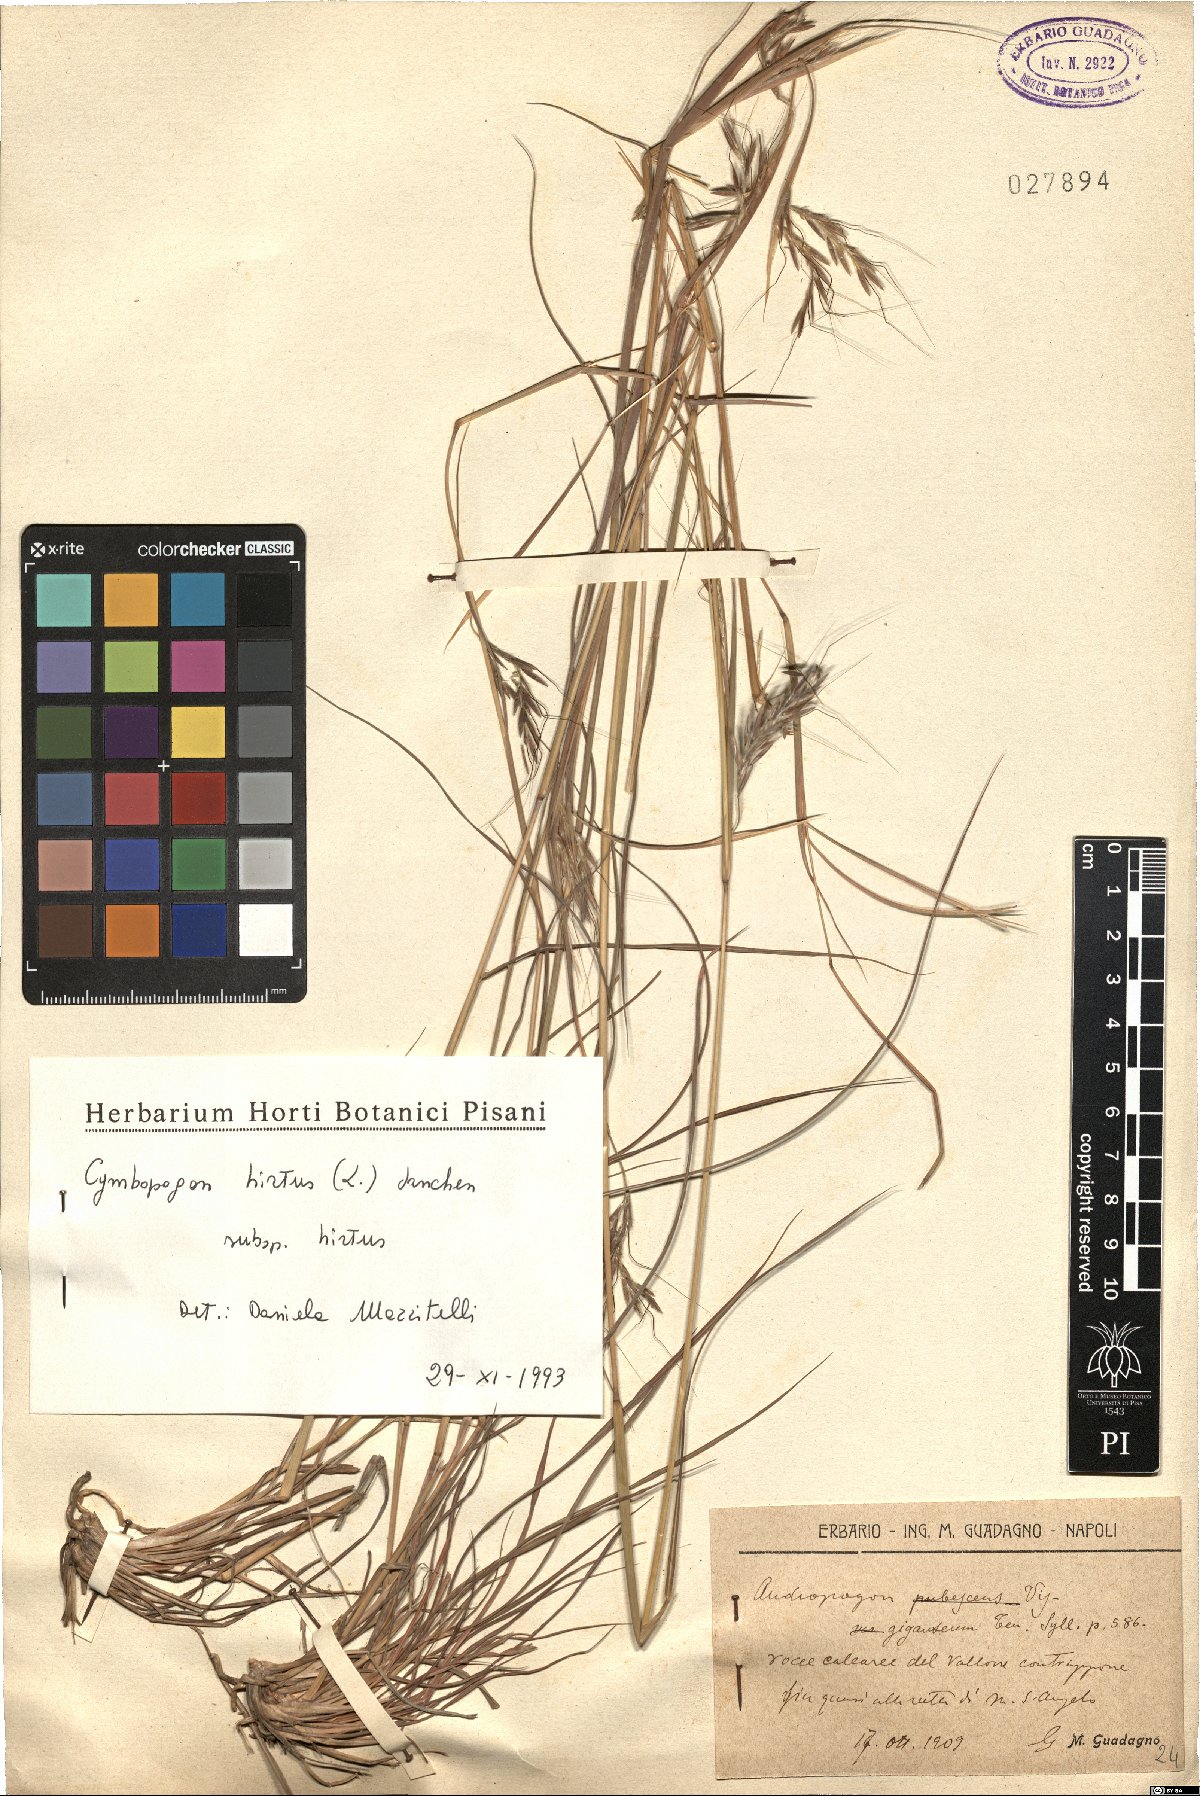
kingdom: Plantae
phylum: Tracheophyta
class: Liliopsida
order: Poales
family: Poaceae
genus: Cymbopogon
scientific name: Cymbopogon hirtus
